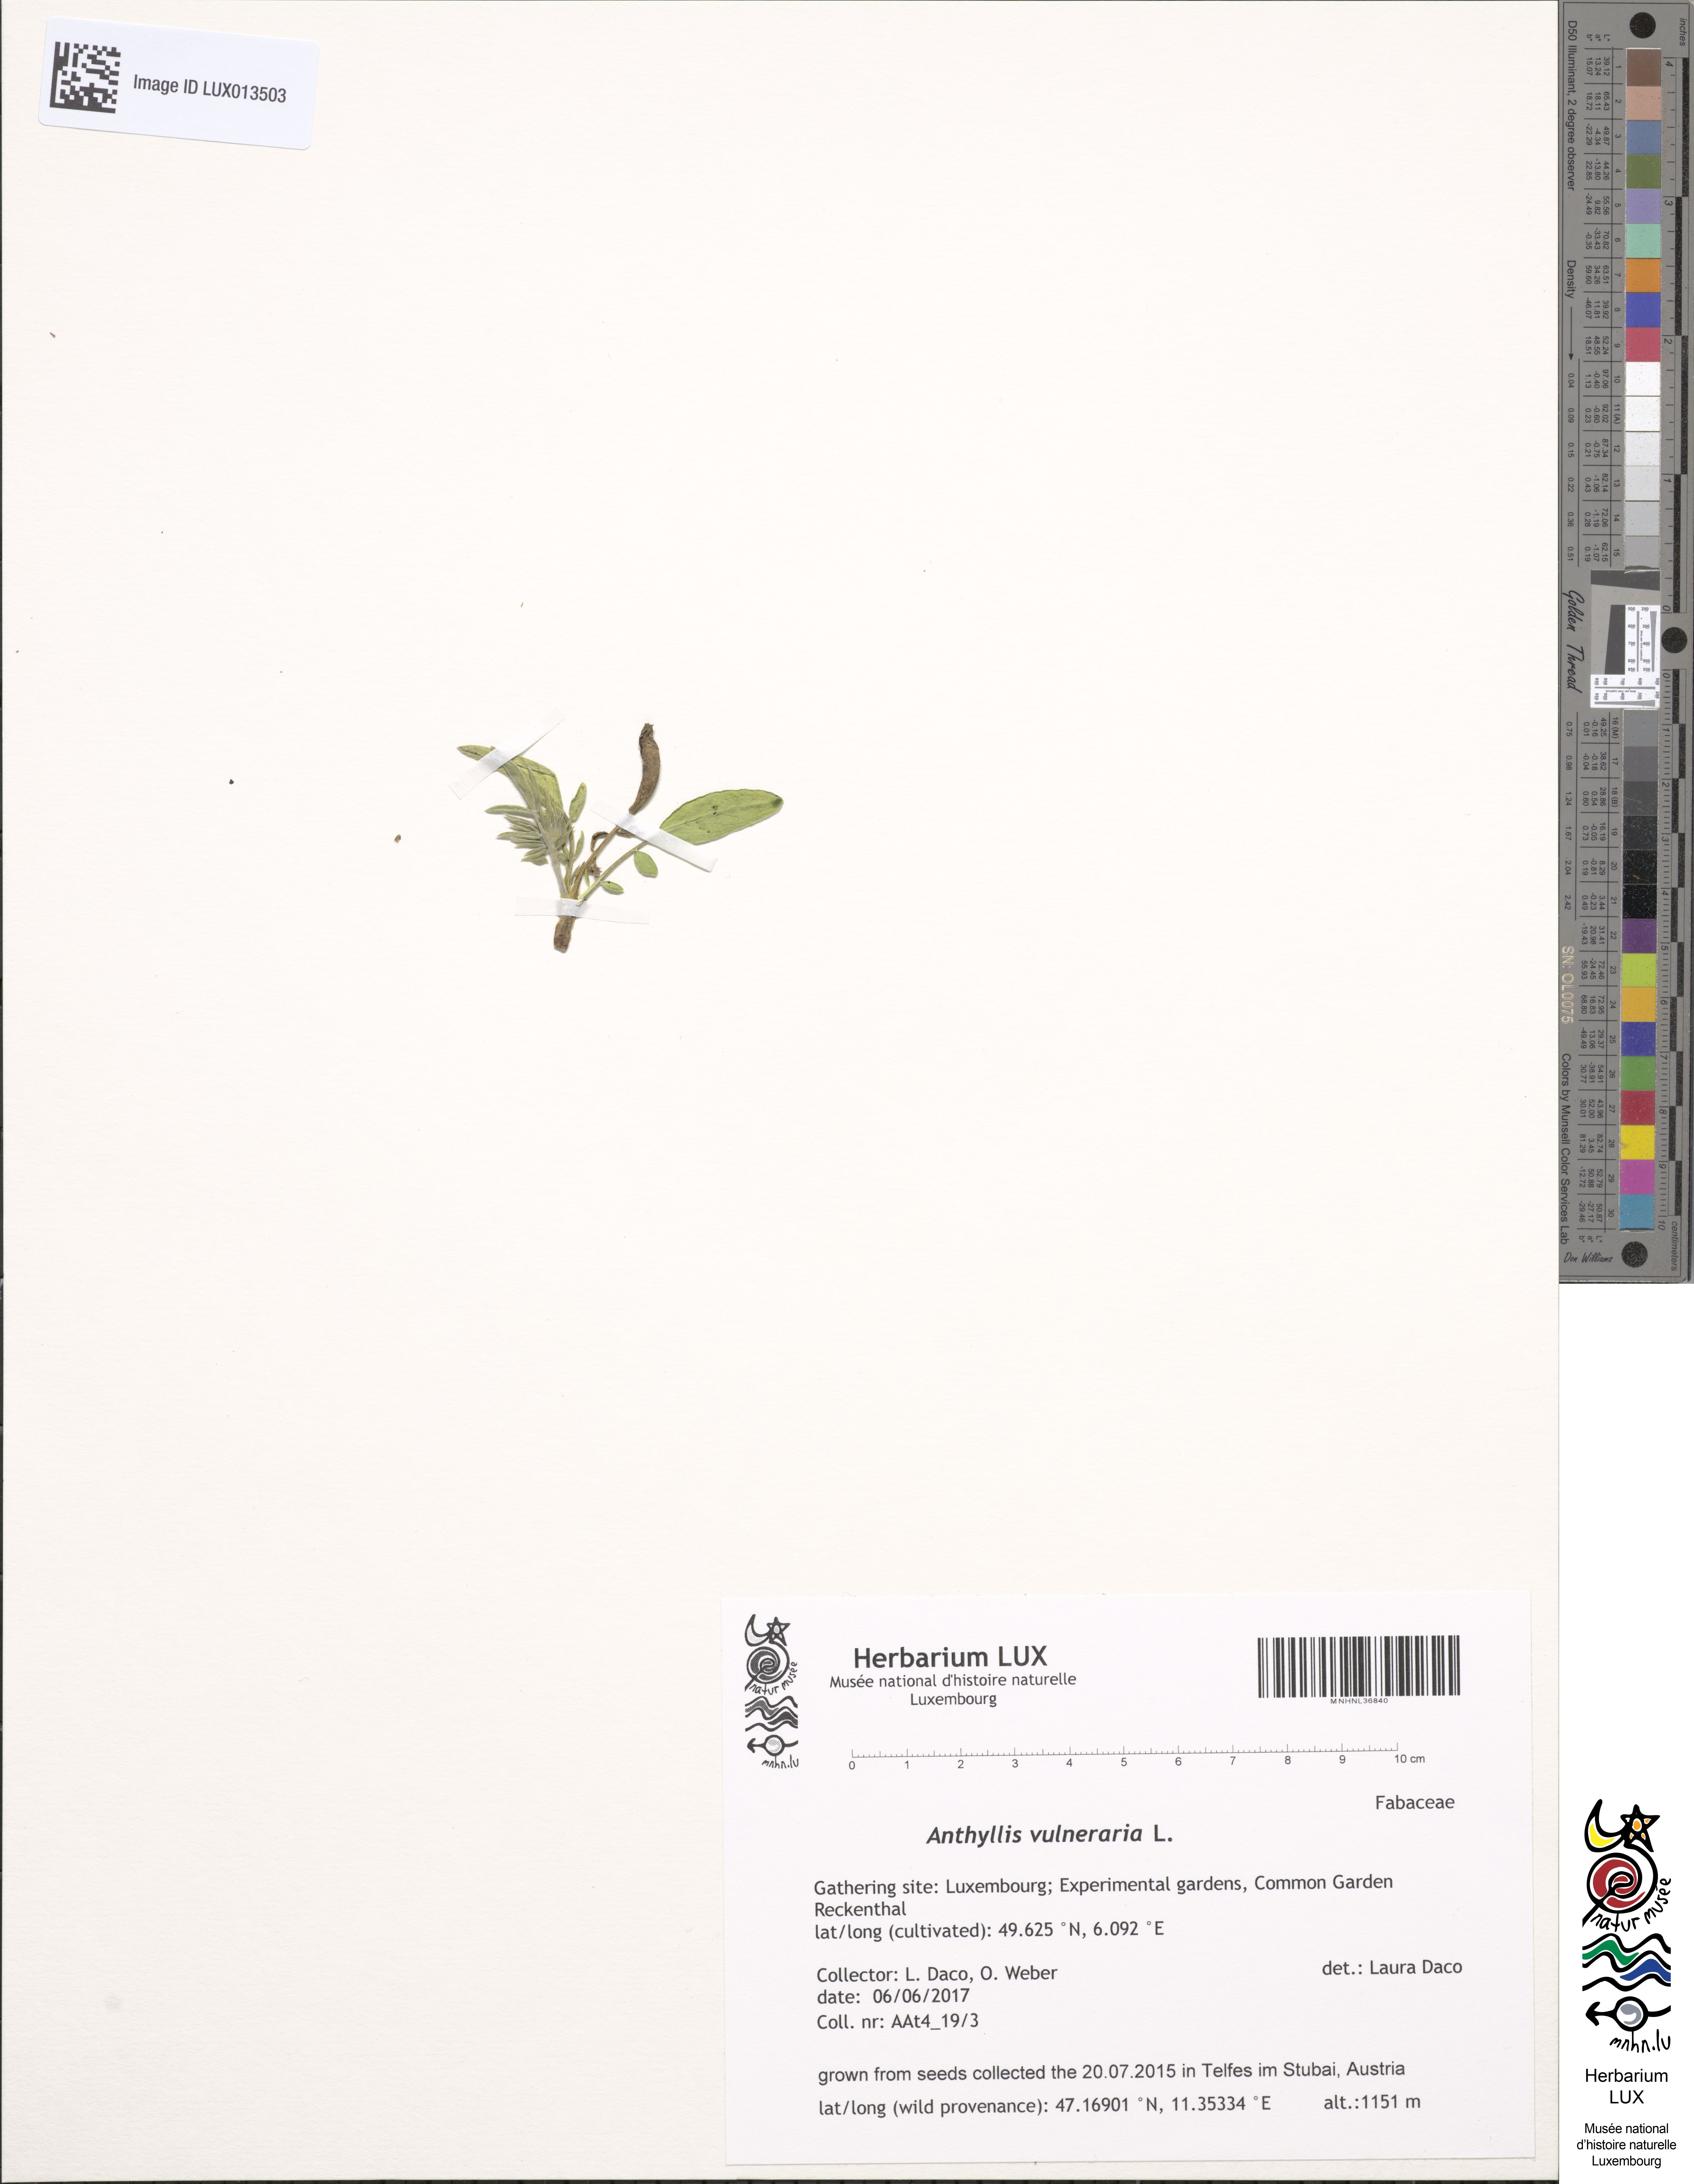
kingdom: Plantae
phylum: Tracheophyta
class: Magnoliopsida
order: Fabales
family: Fabaceae
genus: Anthyllis
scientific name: Anthyllis vulneraria
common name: Kidney vetch
